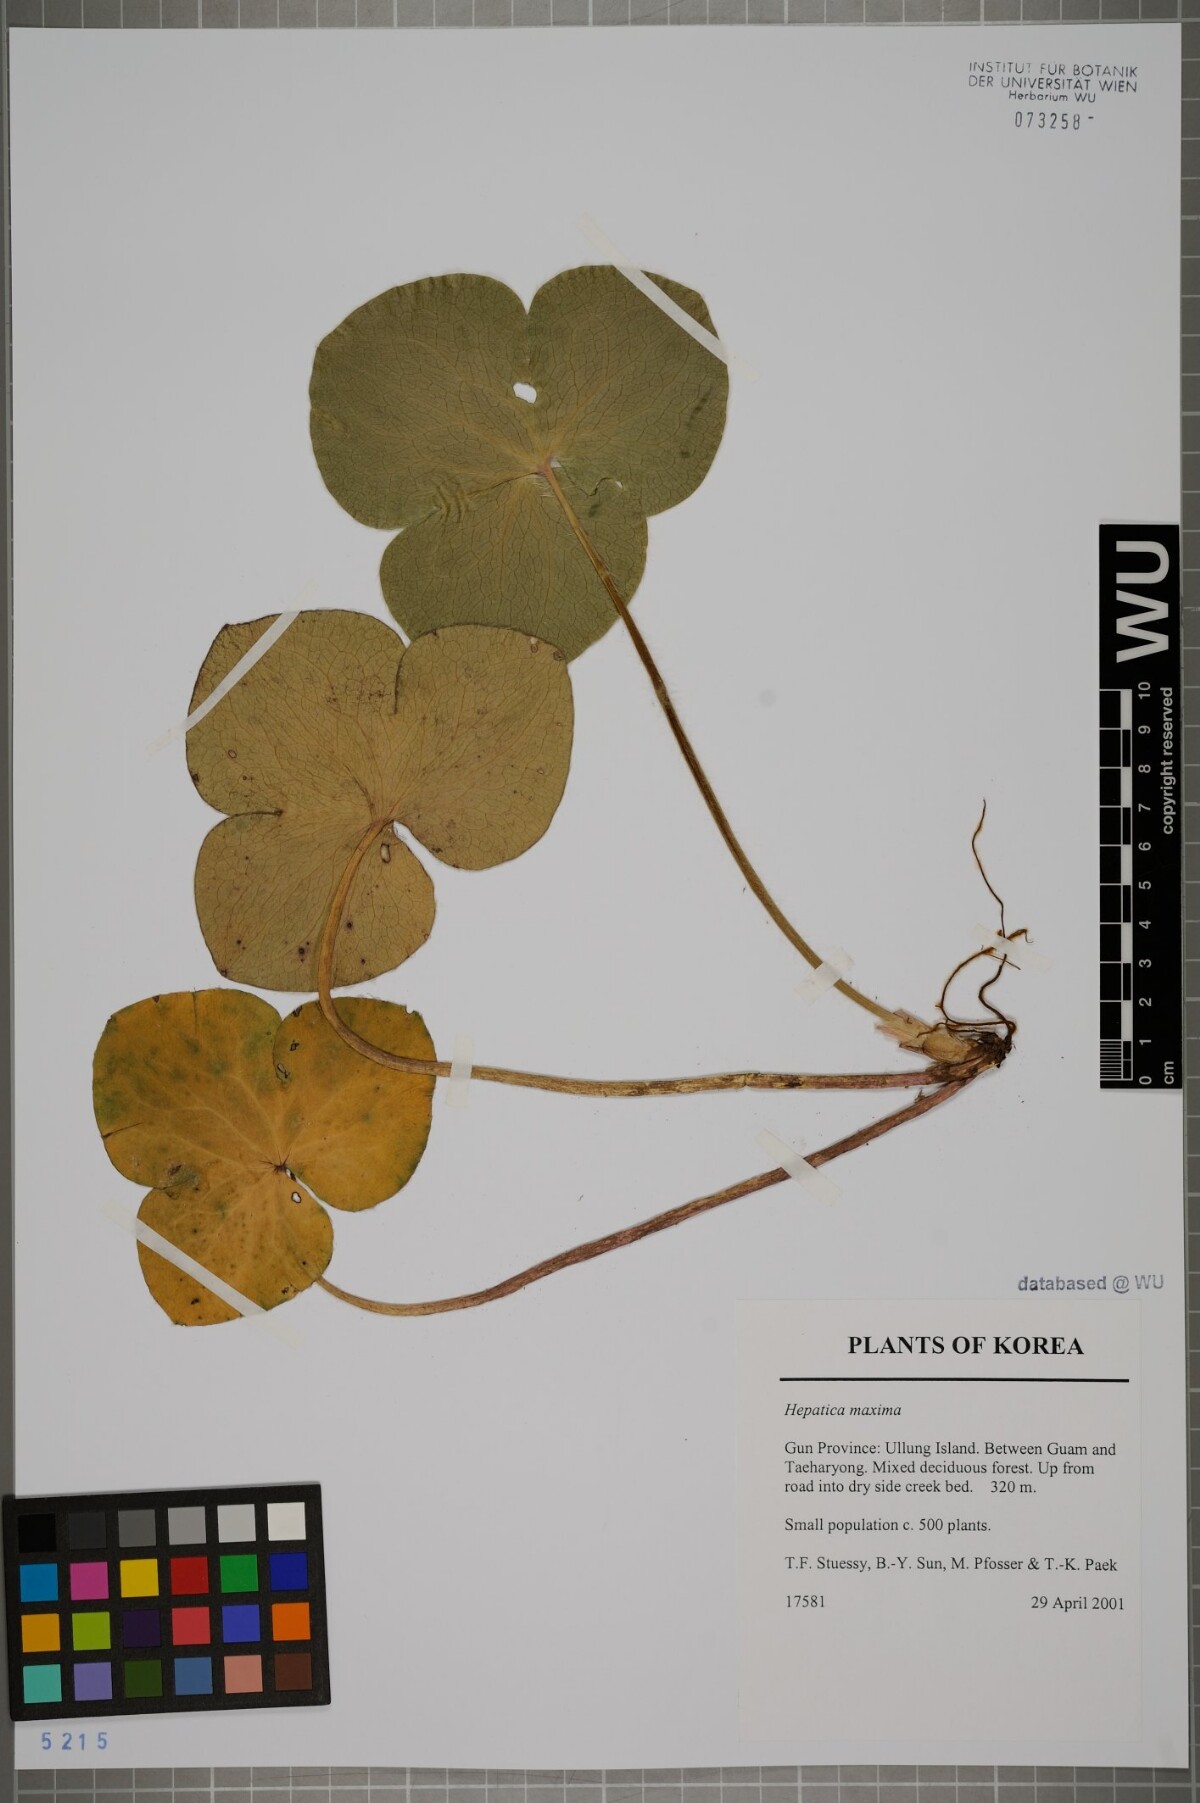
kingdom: Plantae
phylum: Tracheophyta
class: Magnoliopsida
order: Ranunculales
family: Ranunculaceae
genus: Hepatica
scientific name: Hepatica maxima
